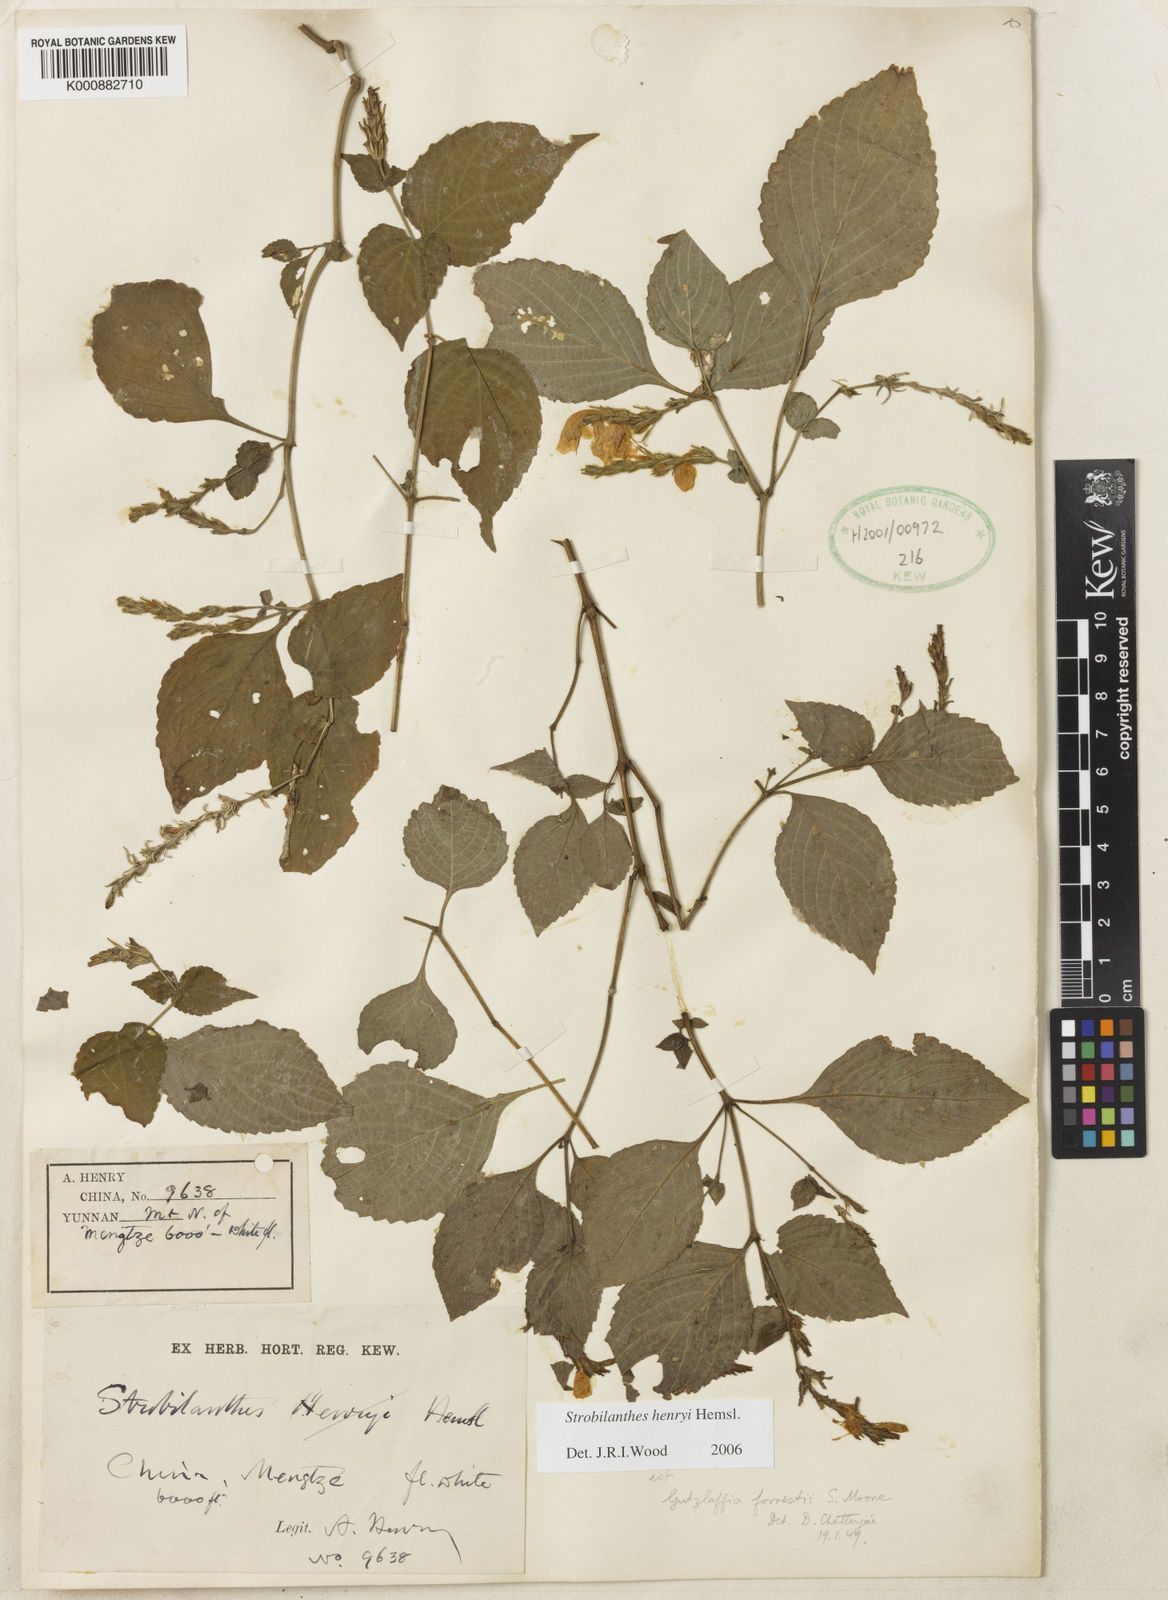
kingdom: Plantae
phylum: Tracheophyta
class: Magnoliopsida
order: Lamiales
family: Acanthaceae
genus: Strobilanthes
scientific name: Strobilanthes henryi
